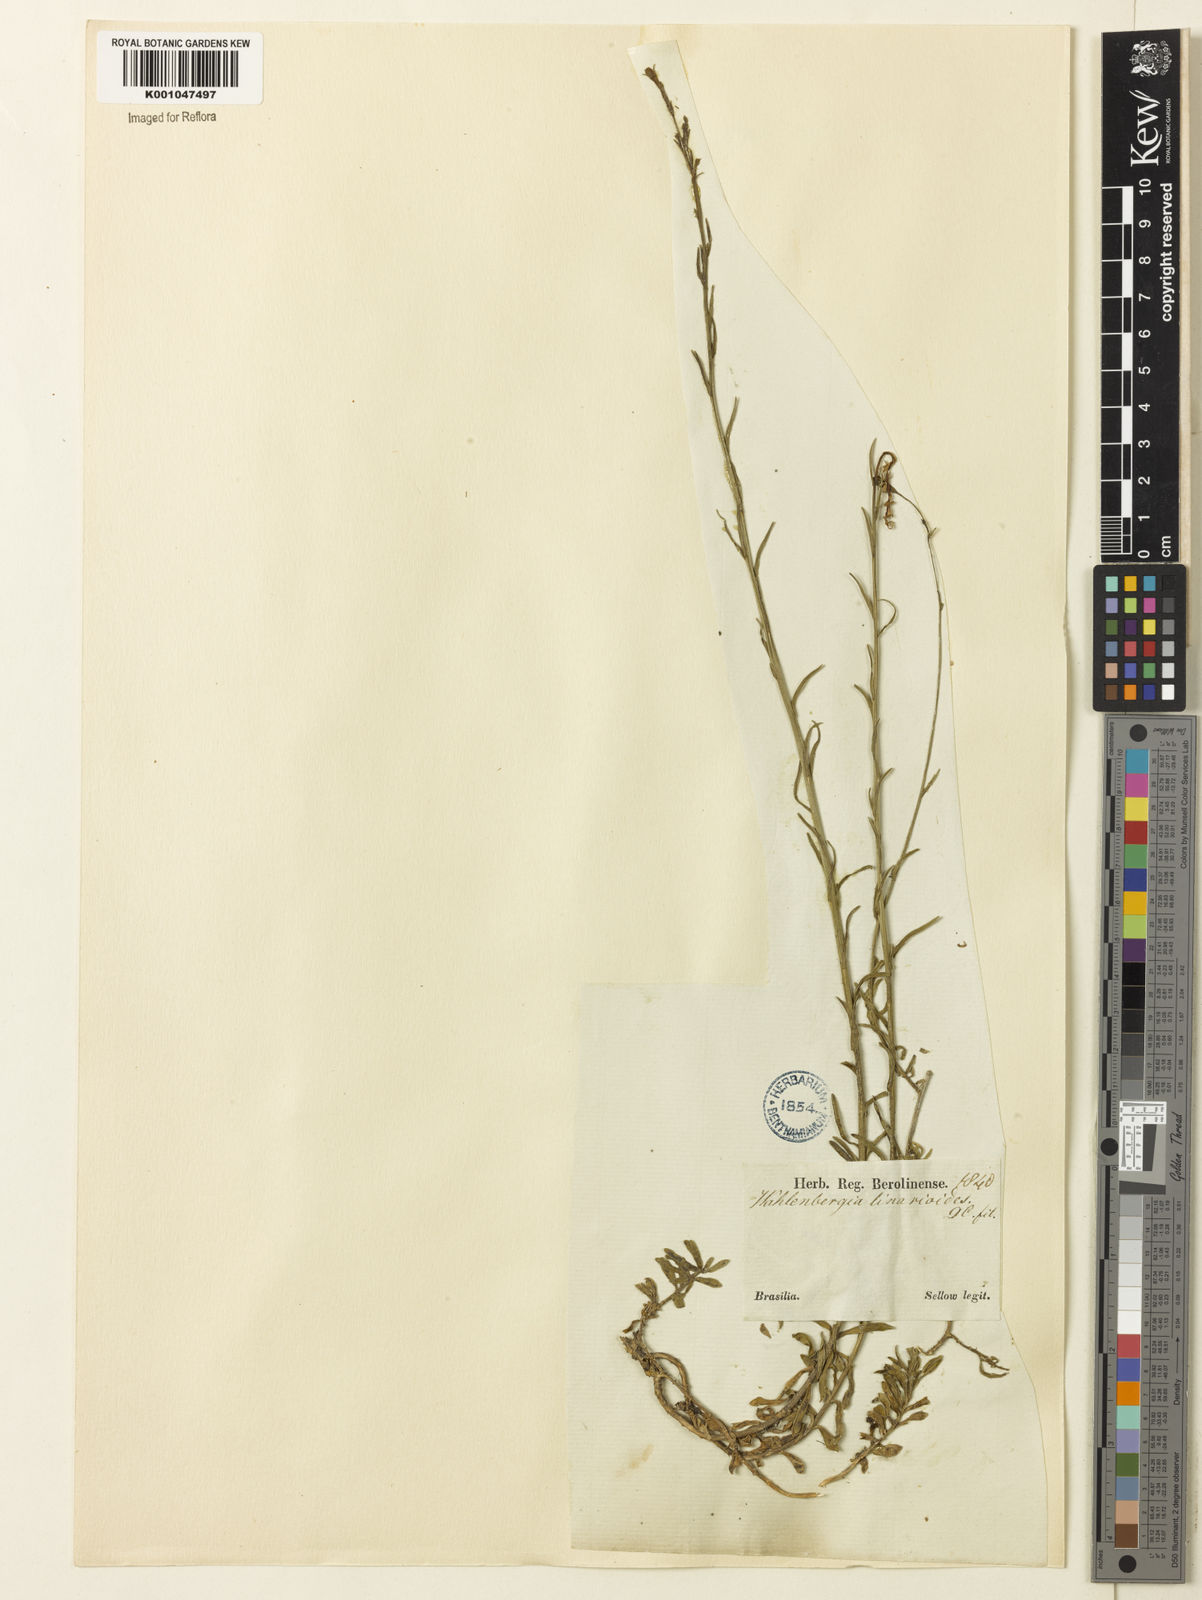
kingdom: Plantae
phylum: Tracheophyta
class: Magnoliopsida
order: Asterales
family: Campanulaceae
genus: Wahlenbergia
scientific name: Wahlenbergia linarioides
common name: Tuffybells
